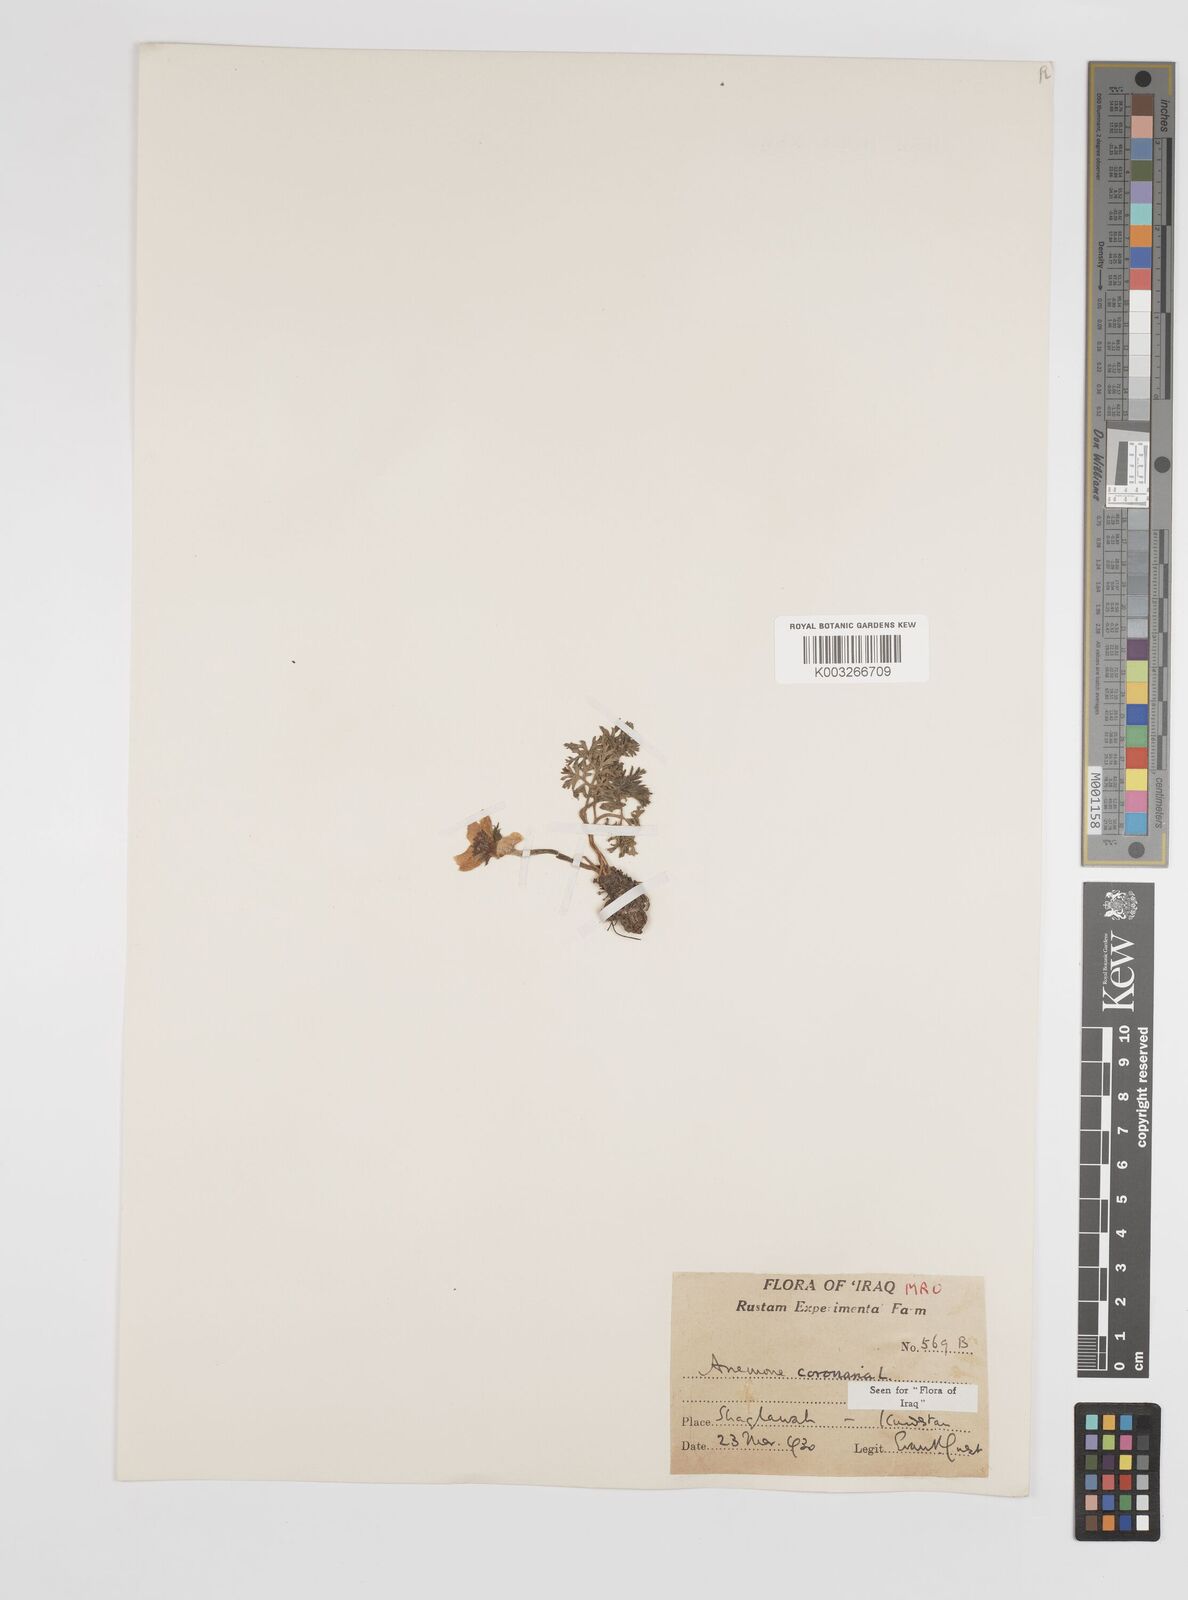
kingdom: Plantae
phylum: Tracheophyta
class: Magnoliopsida
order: Ranunculales
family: Ranunculaceae
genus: Anemone
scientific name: Anemone coronaria
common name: Poppy anemone
